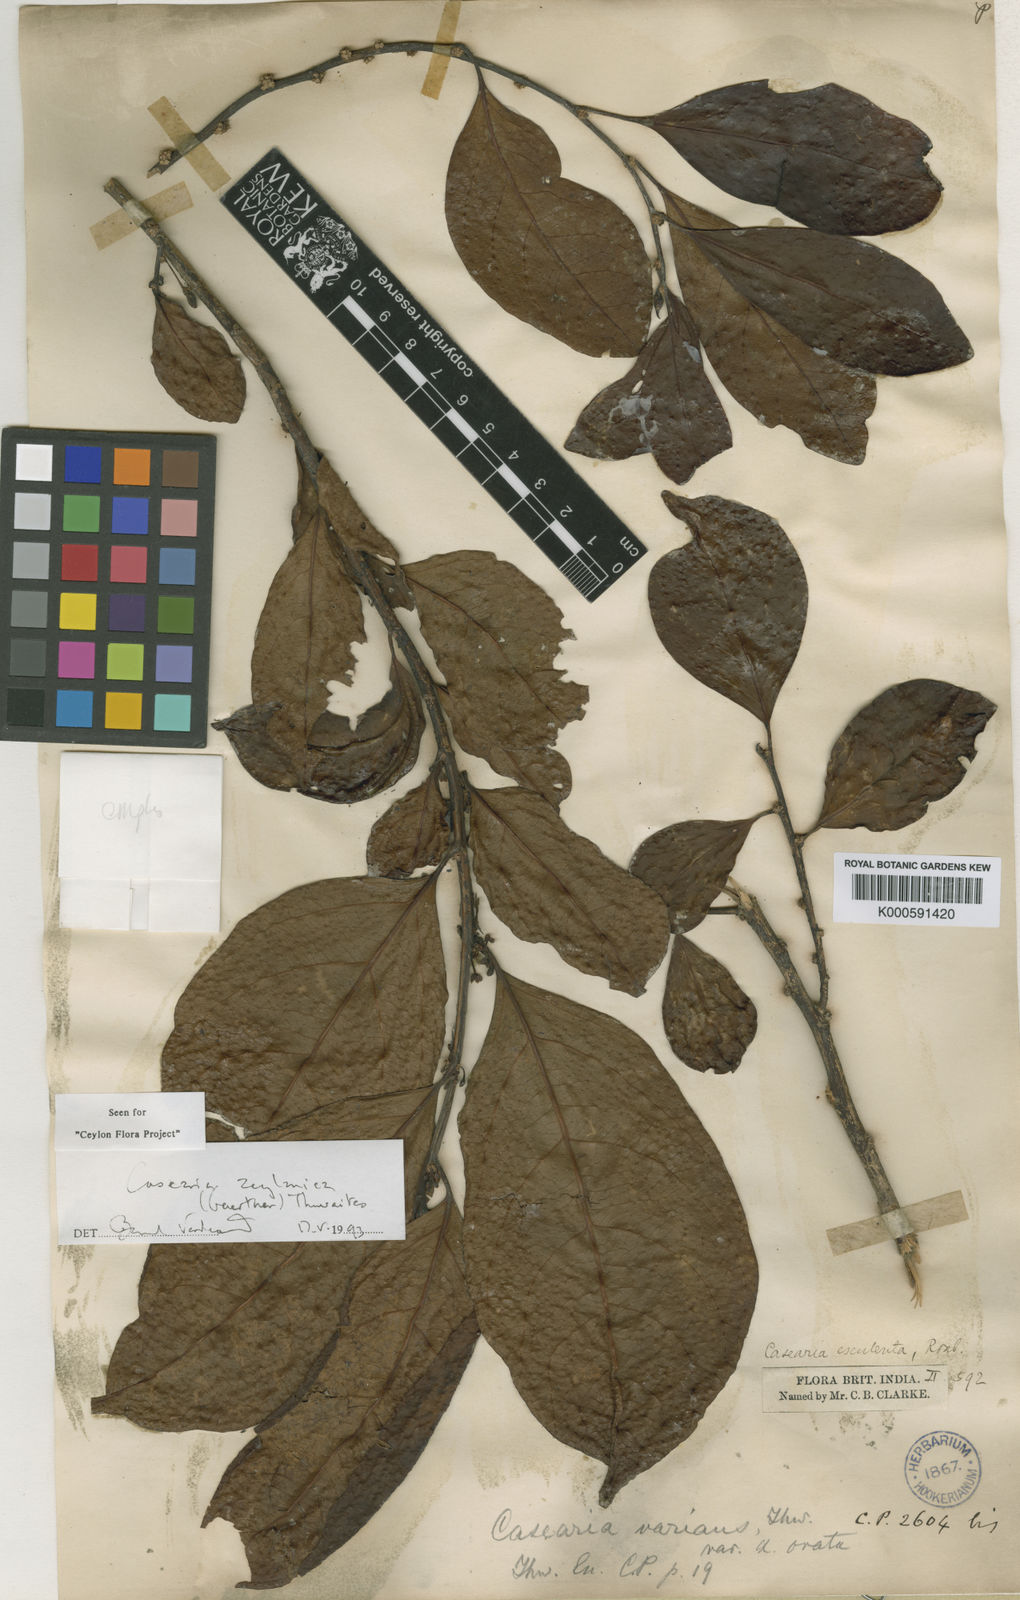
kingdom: Plantae
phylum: Tracheophyta
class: Magnoliopsida
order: Malpighiales
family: Salicaceae
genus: Casearia
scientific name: Casearia zeylanica
